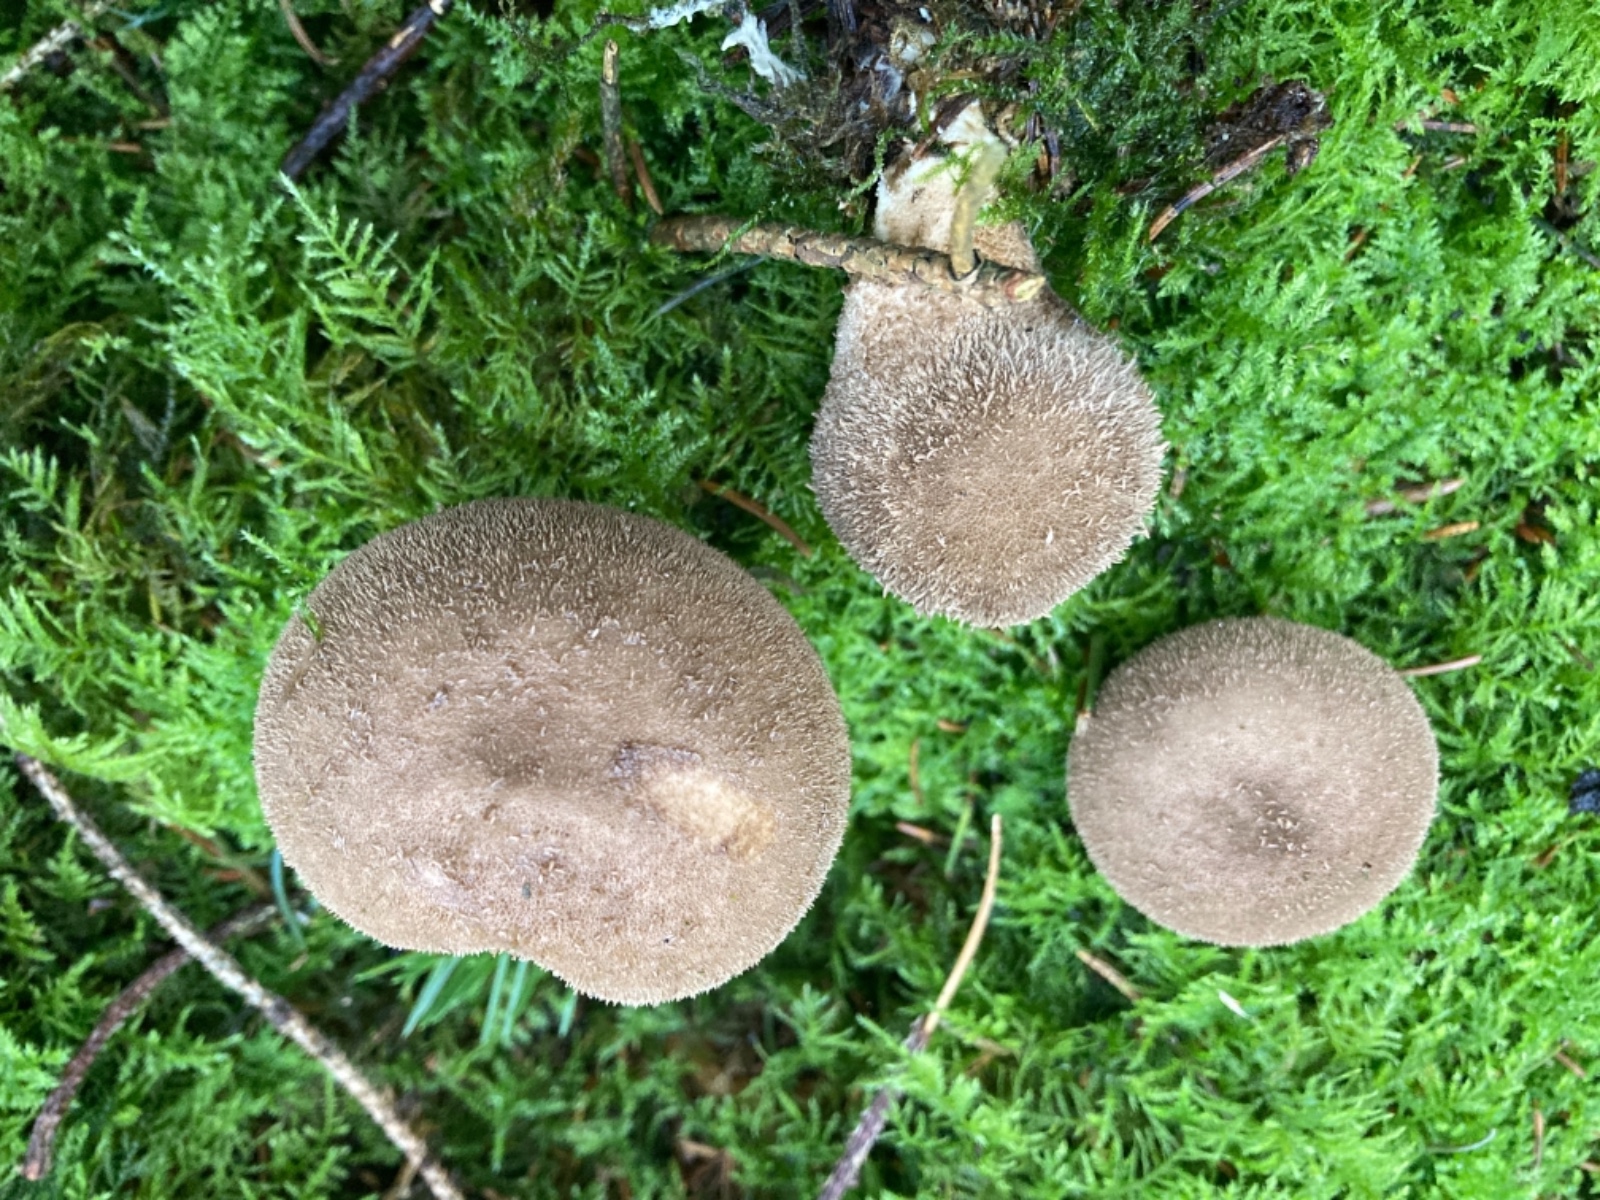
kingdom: Fungi
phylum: Basidiomycota
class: Agaricomycetes
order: Agaricales
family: Lycoperdaceae
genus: Lycoperdon
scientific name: Lycoperdon umbrinum
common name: umbrabrun støvbold
